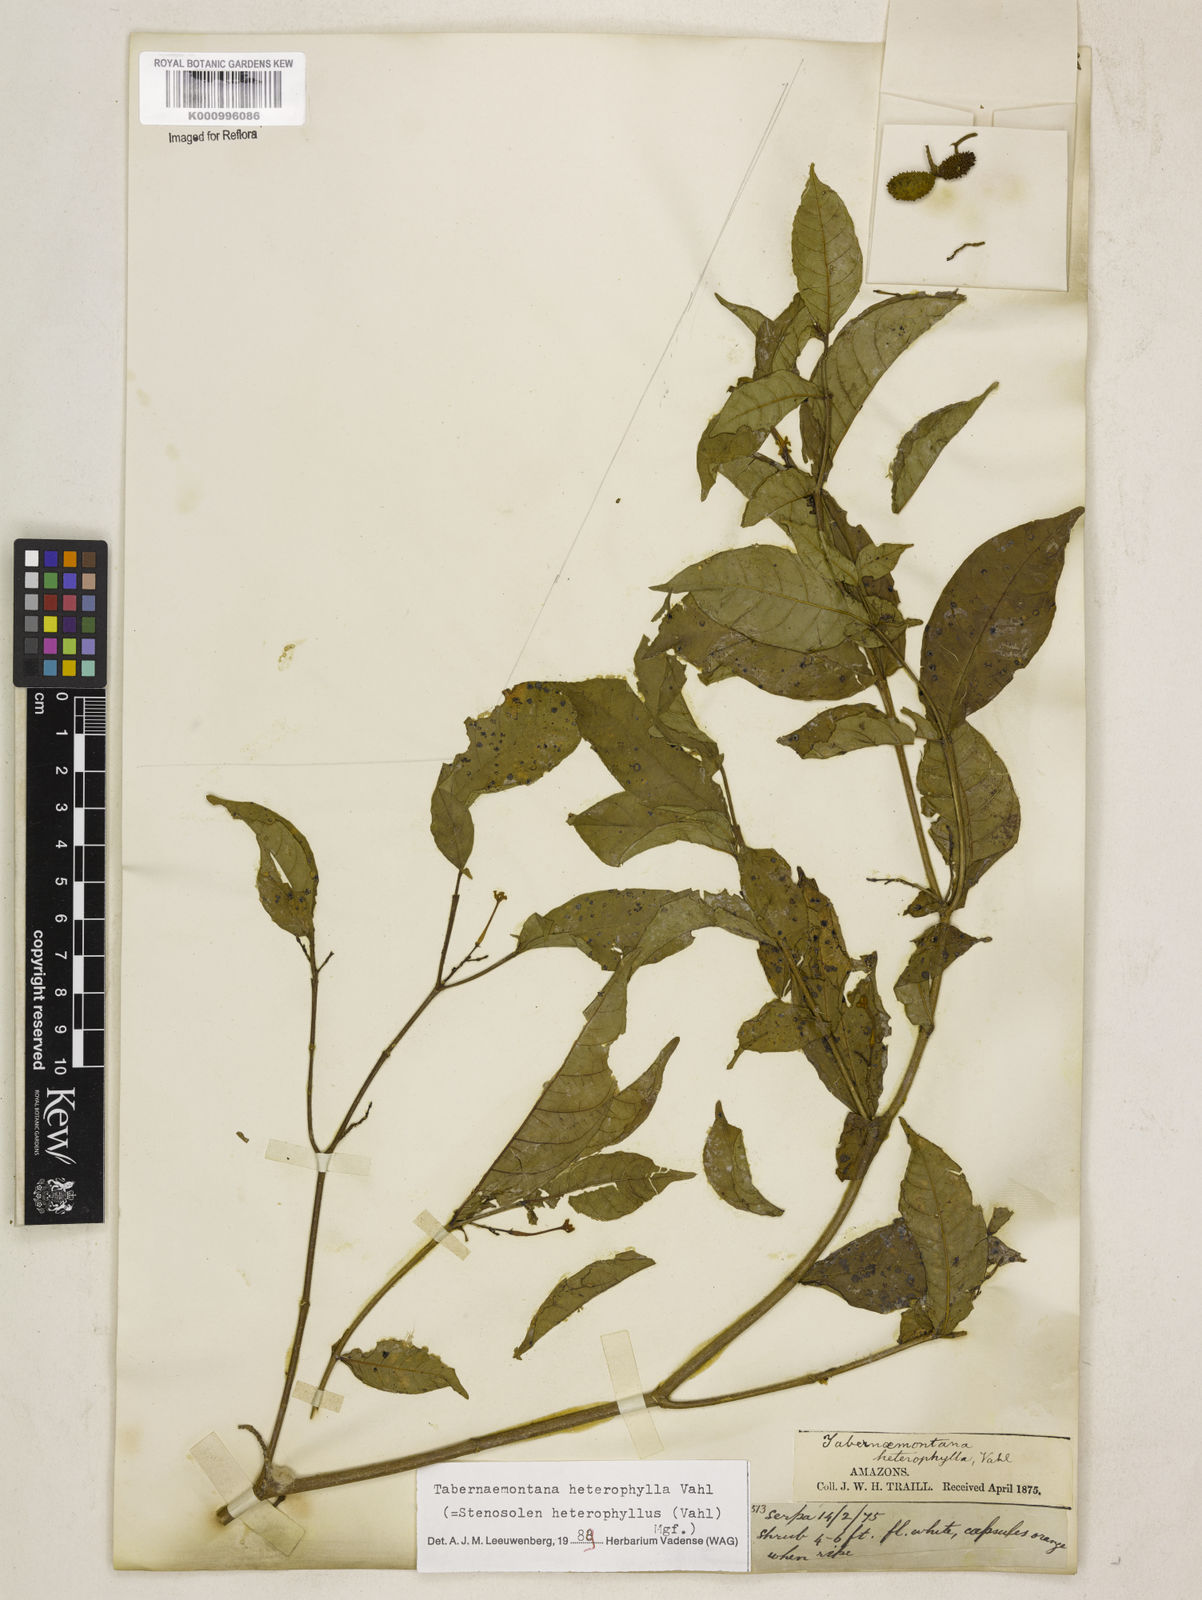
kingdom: Plantae
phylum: Tracheophyta
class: Magnoliopsida
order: Gentianales
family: Apocynaceae
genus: Tabernaemontana
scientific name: Tabernaemontana heterophylla
